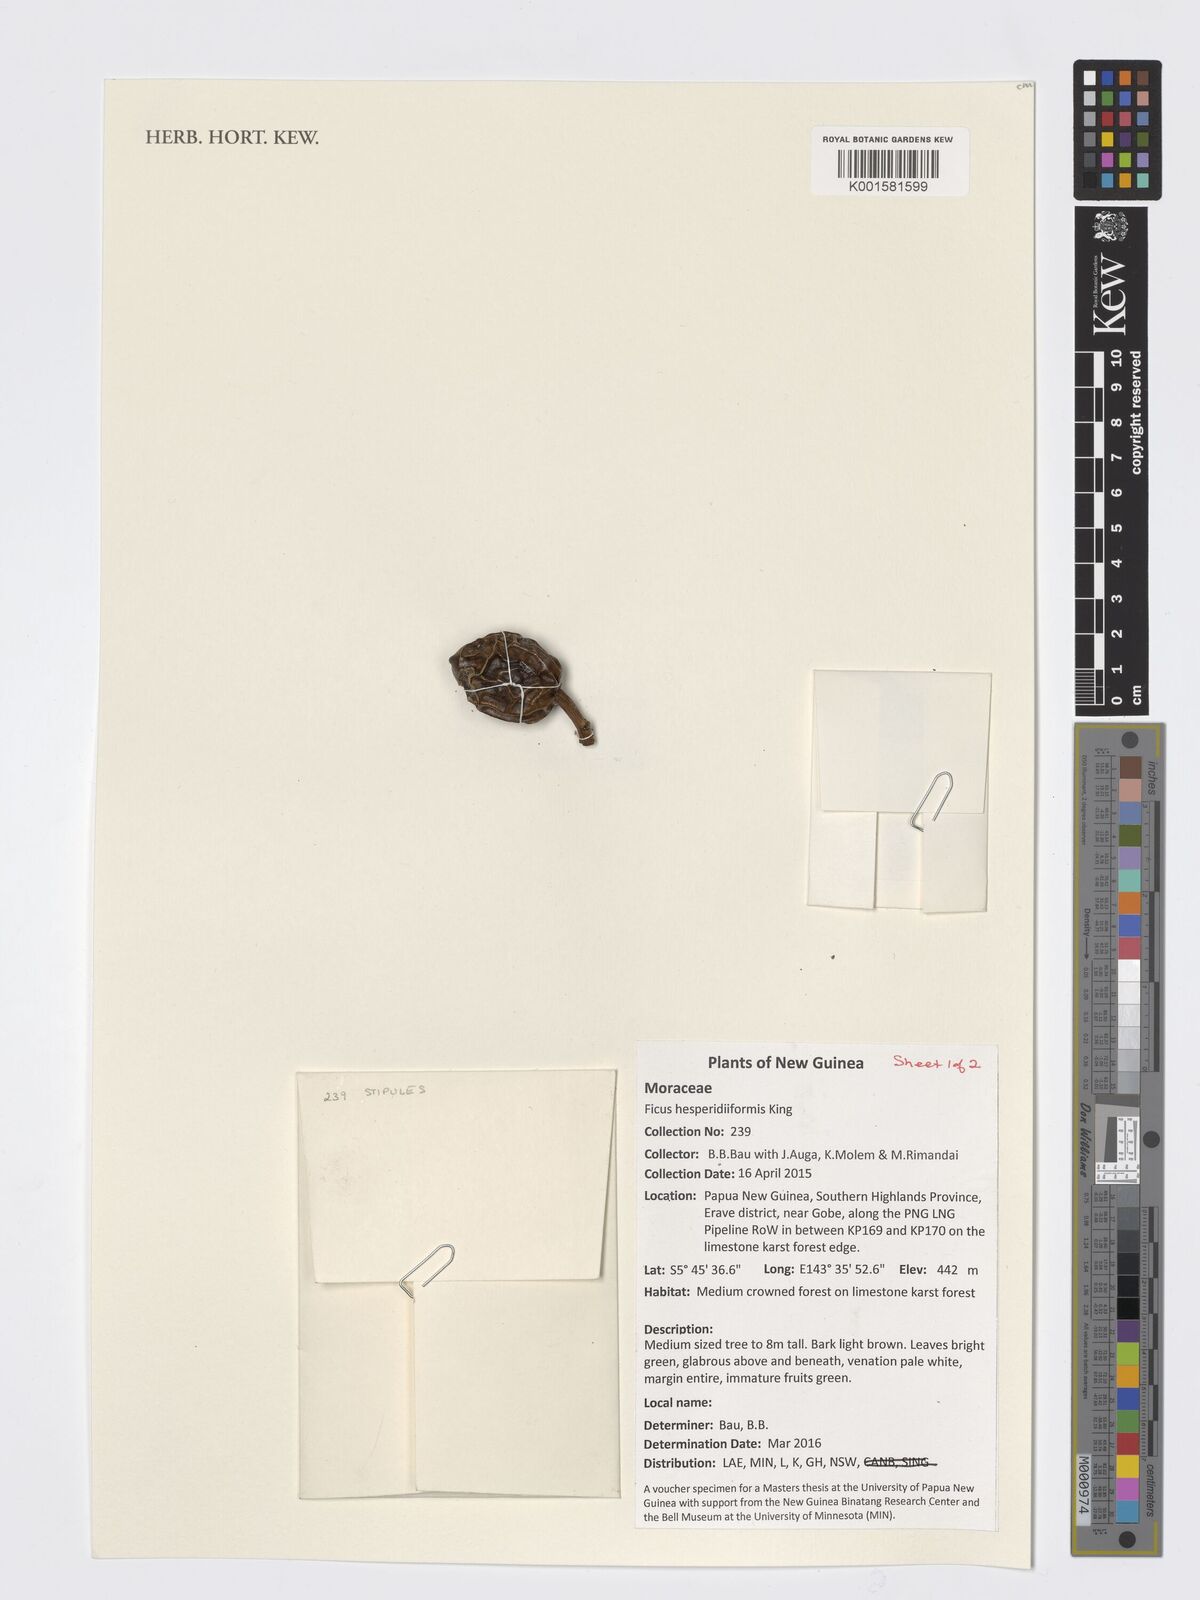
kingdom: Plantae
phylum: Tracheophyta
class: Magnoliopsida
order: Rosales
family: Moraceae
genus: Ficus
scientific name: Ficus hesperidiiformis
